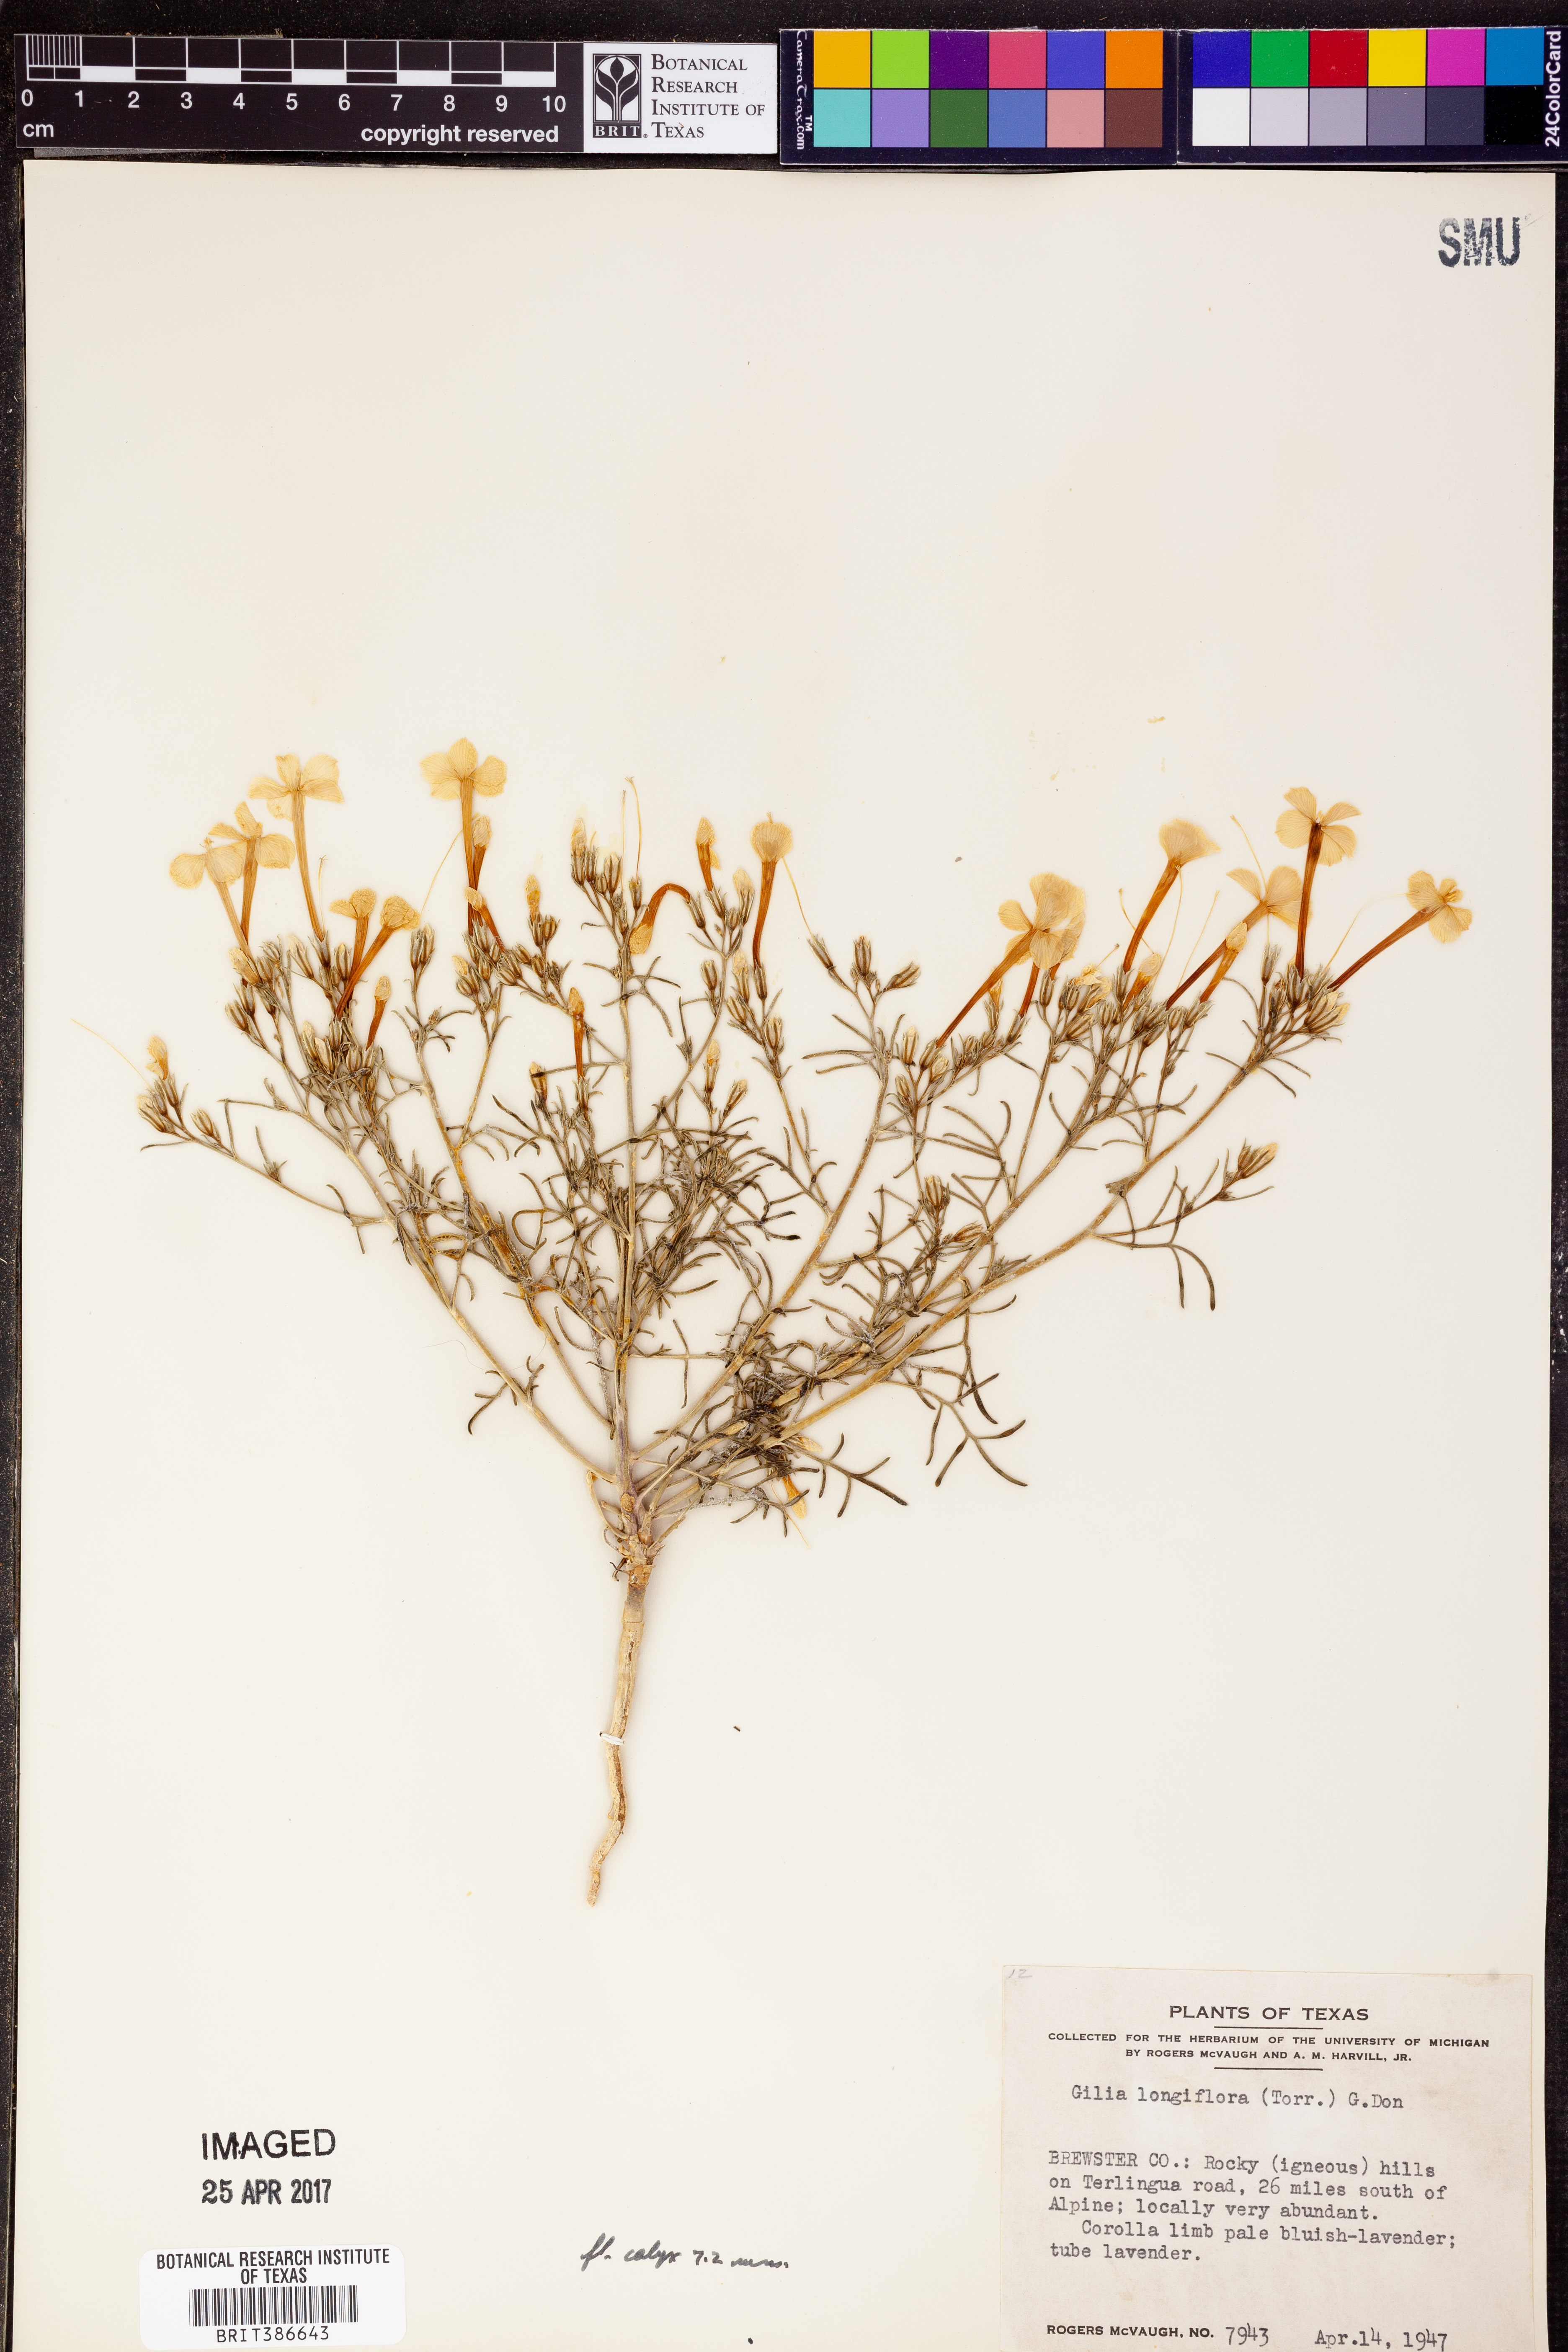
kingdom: Plantae
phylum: Tracheophyta
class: Magnoliopsida
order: Ericales
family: Polemoniaceae
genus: Ipomopsis
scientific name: Ipomopsis longiflora
